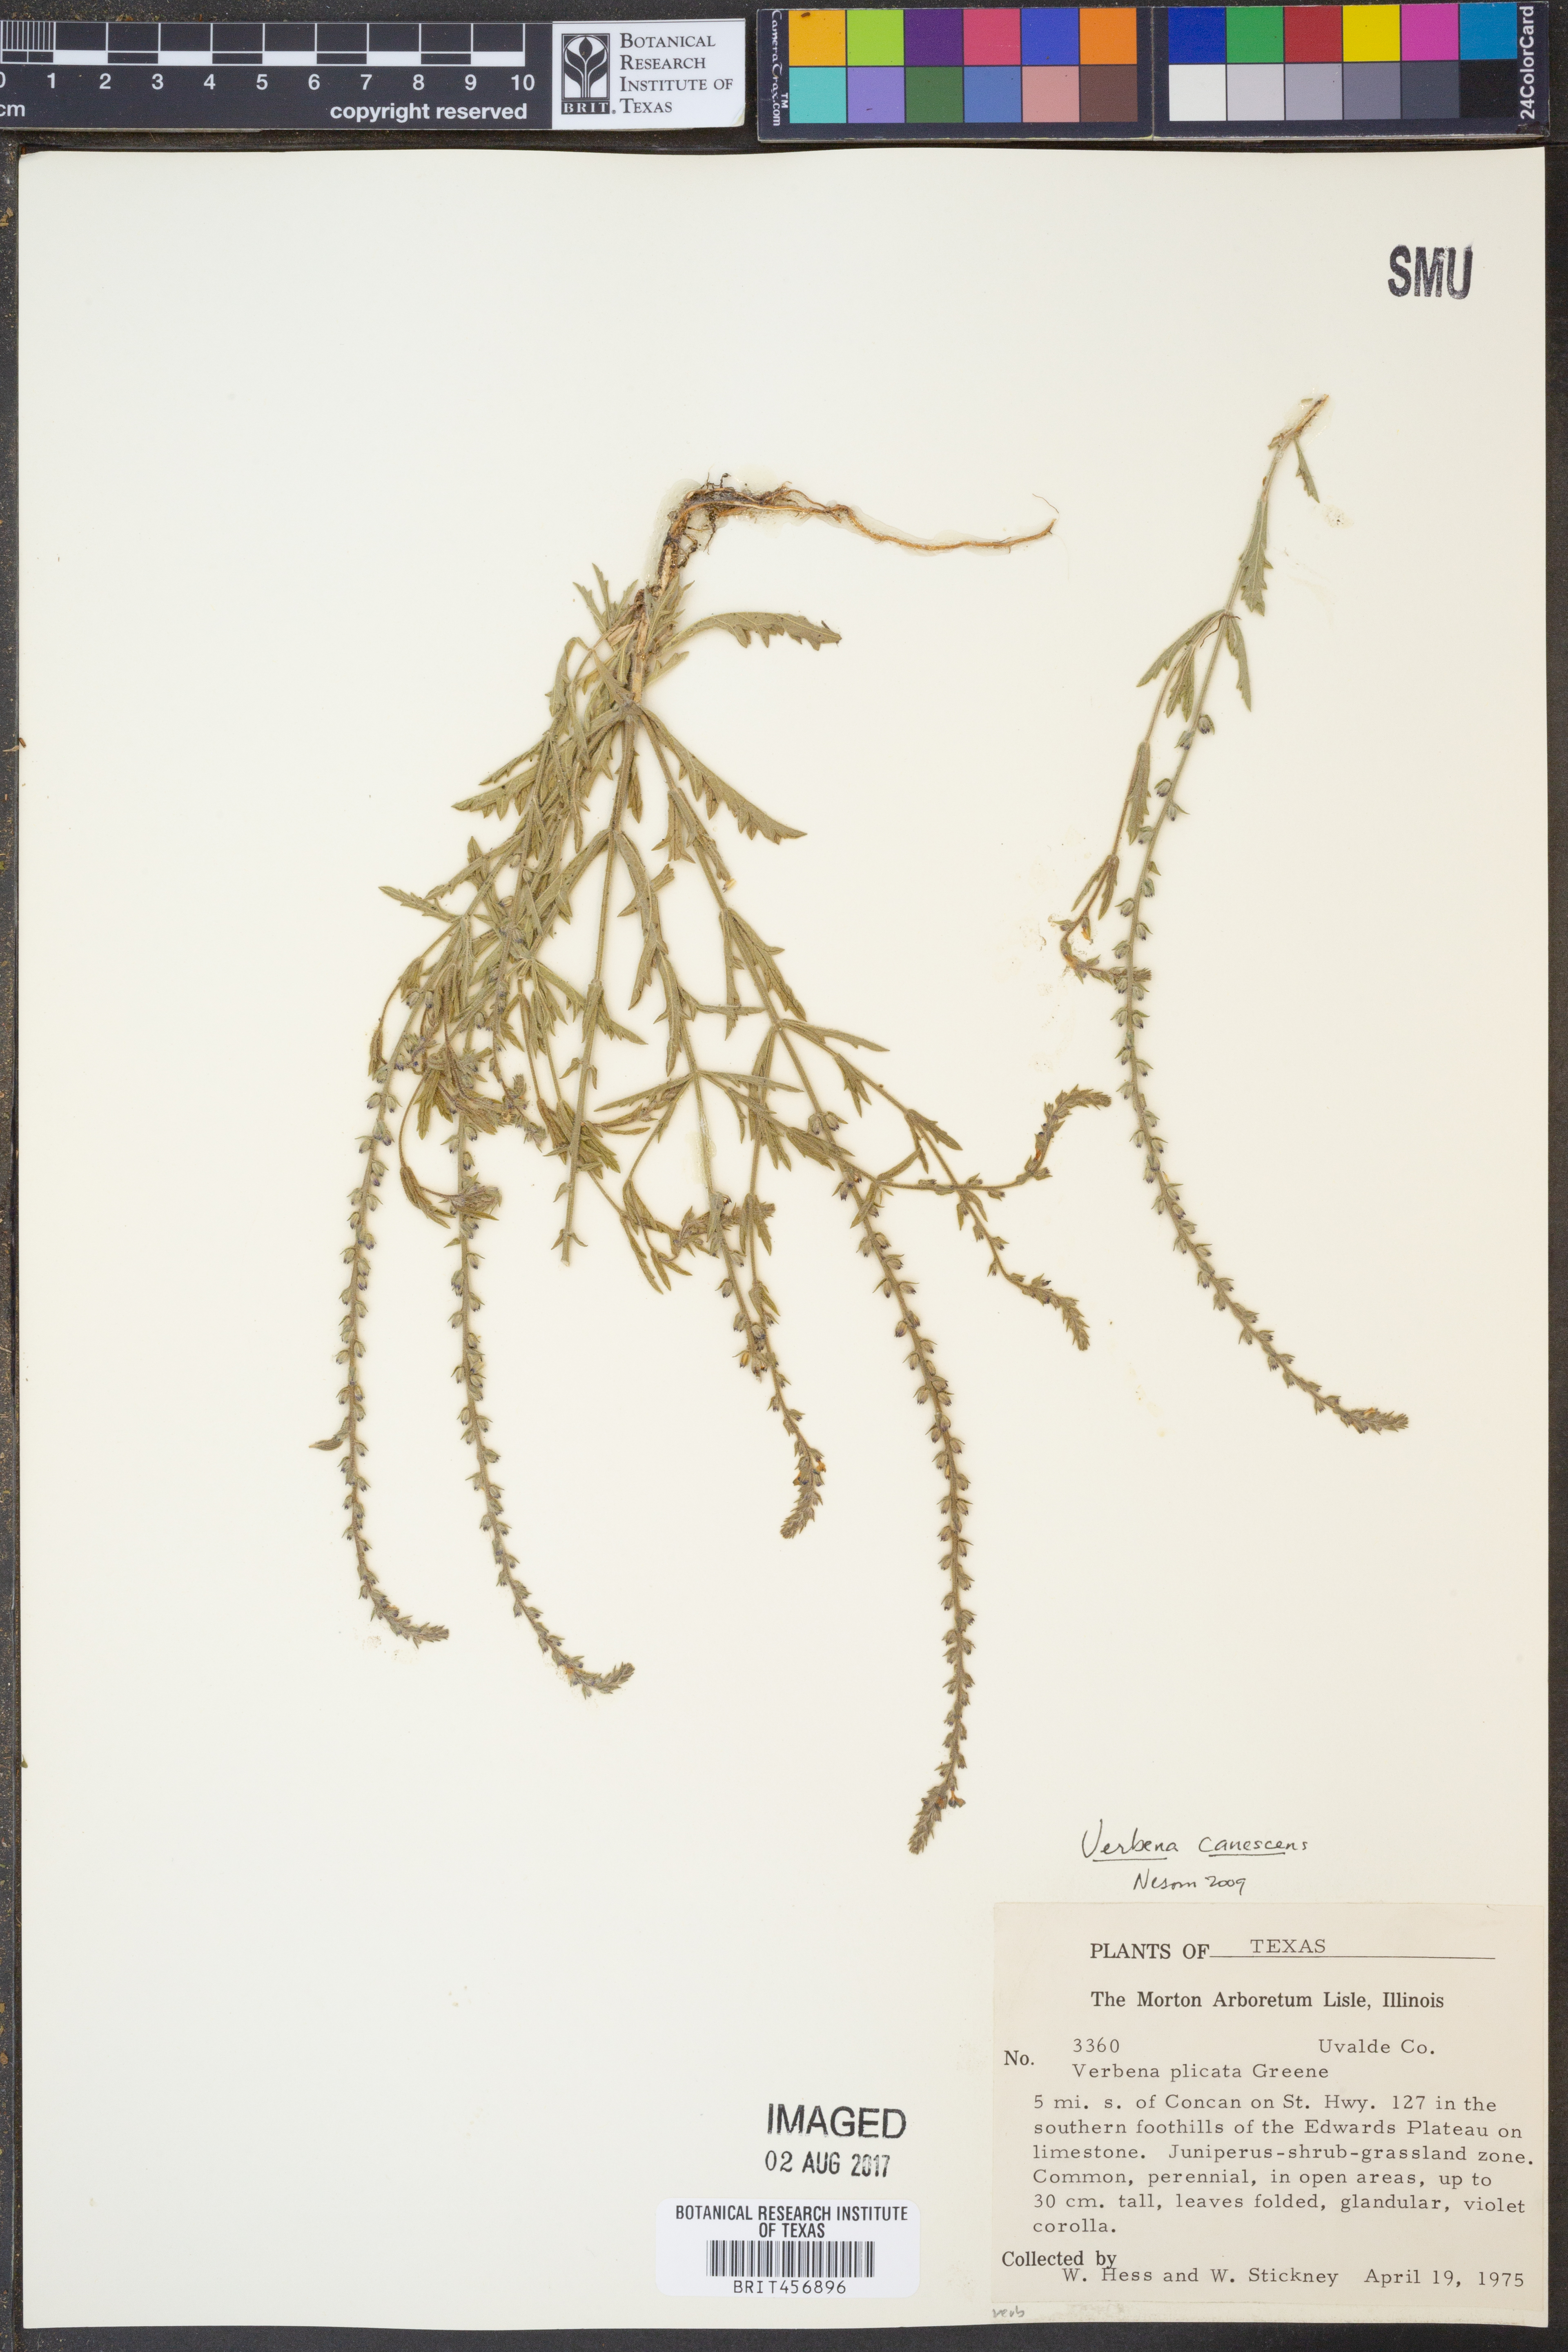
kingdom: Plantae
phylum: Tracheophyta
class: Magnoliopsida
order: Lamiales
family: Verbenaceae
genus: Verbena
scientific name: Verbena canescens
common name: Gray vervain
